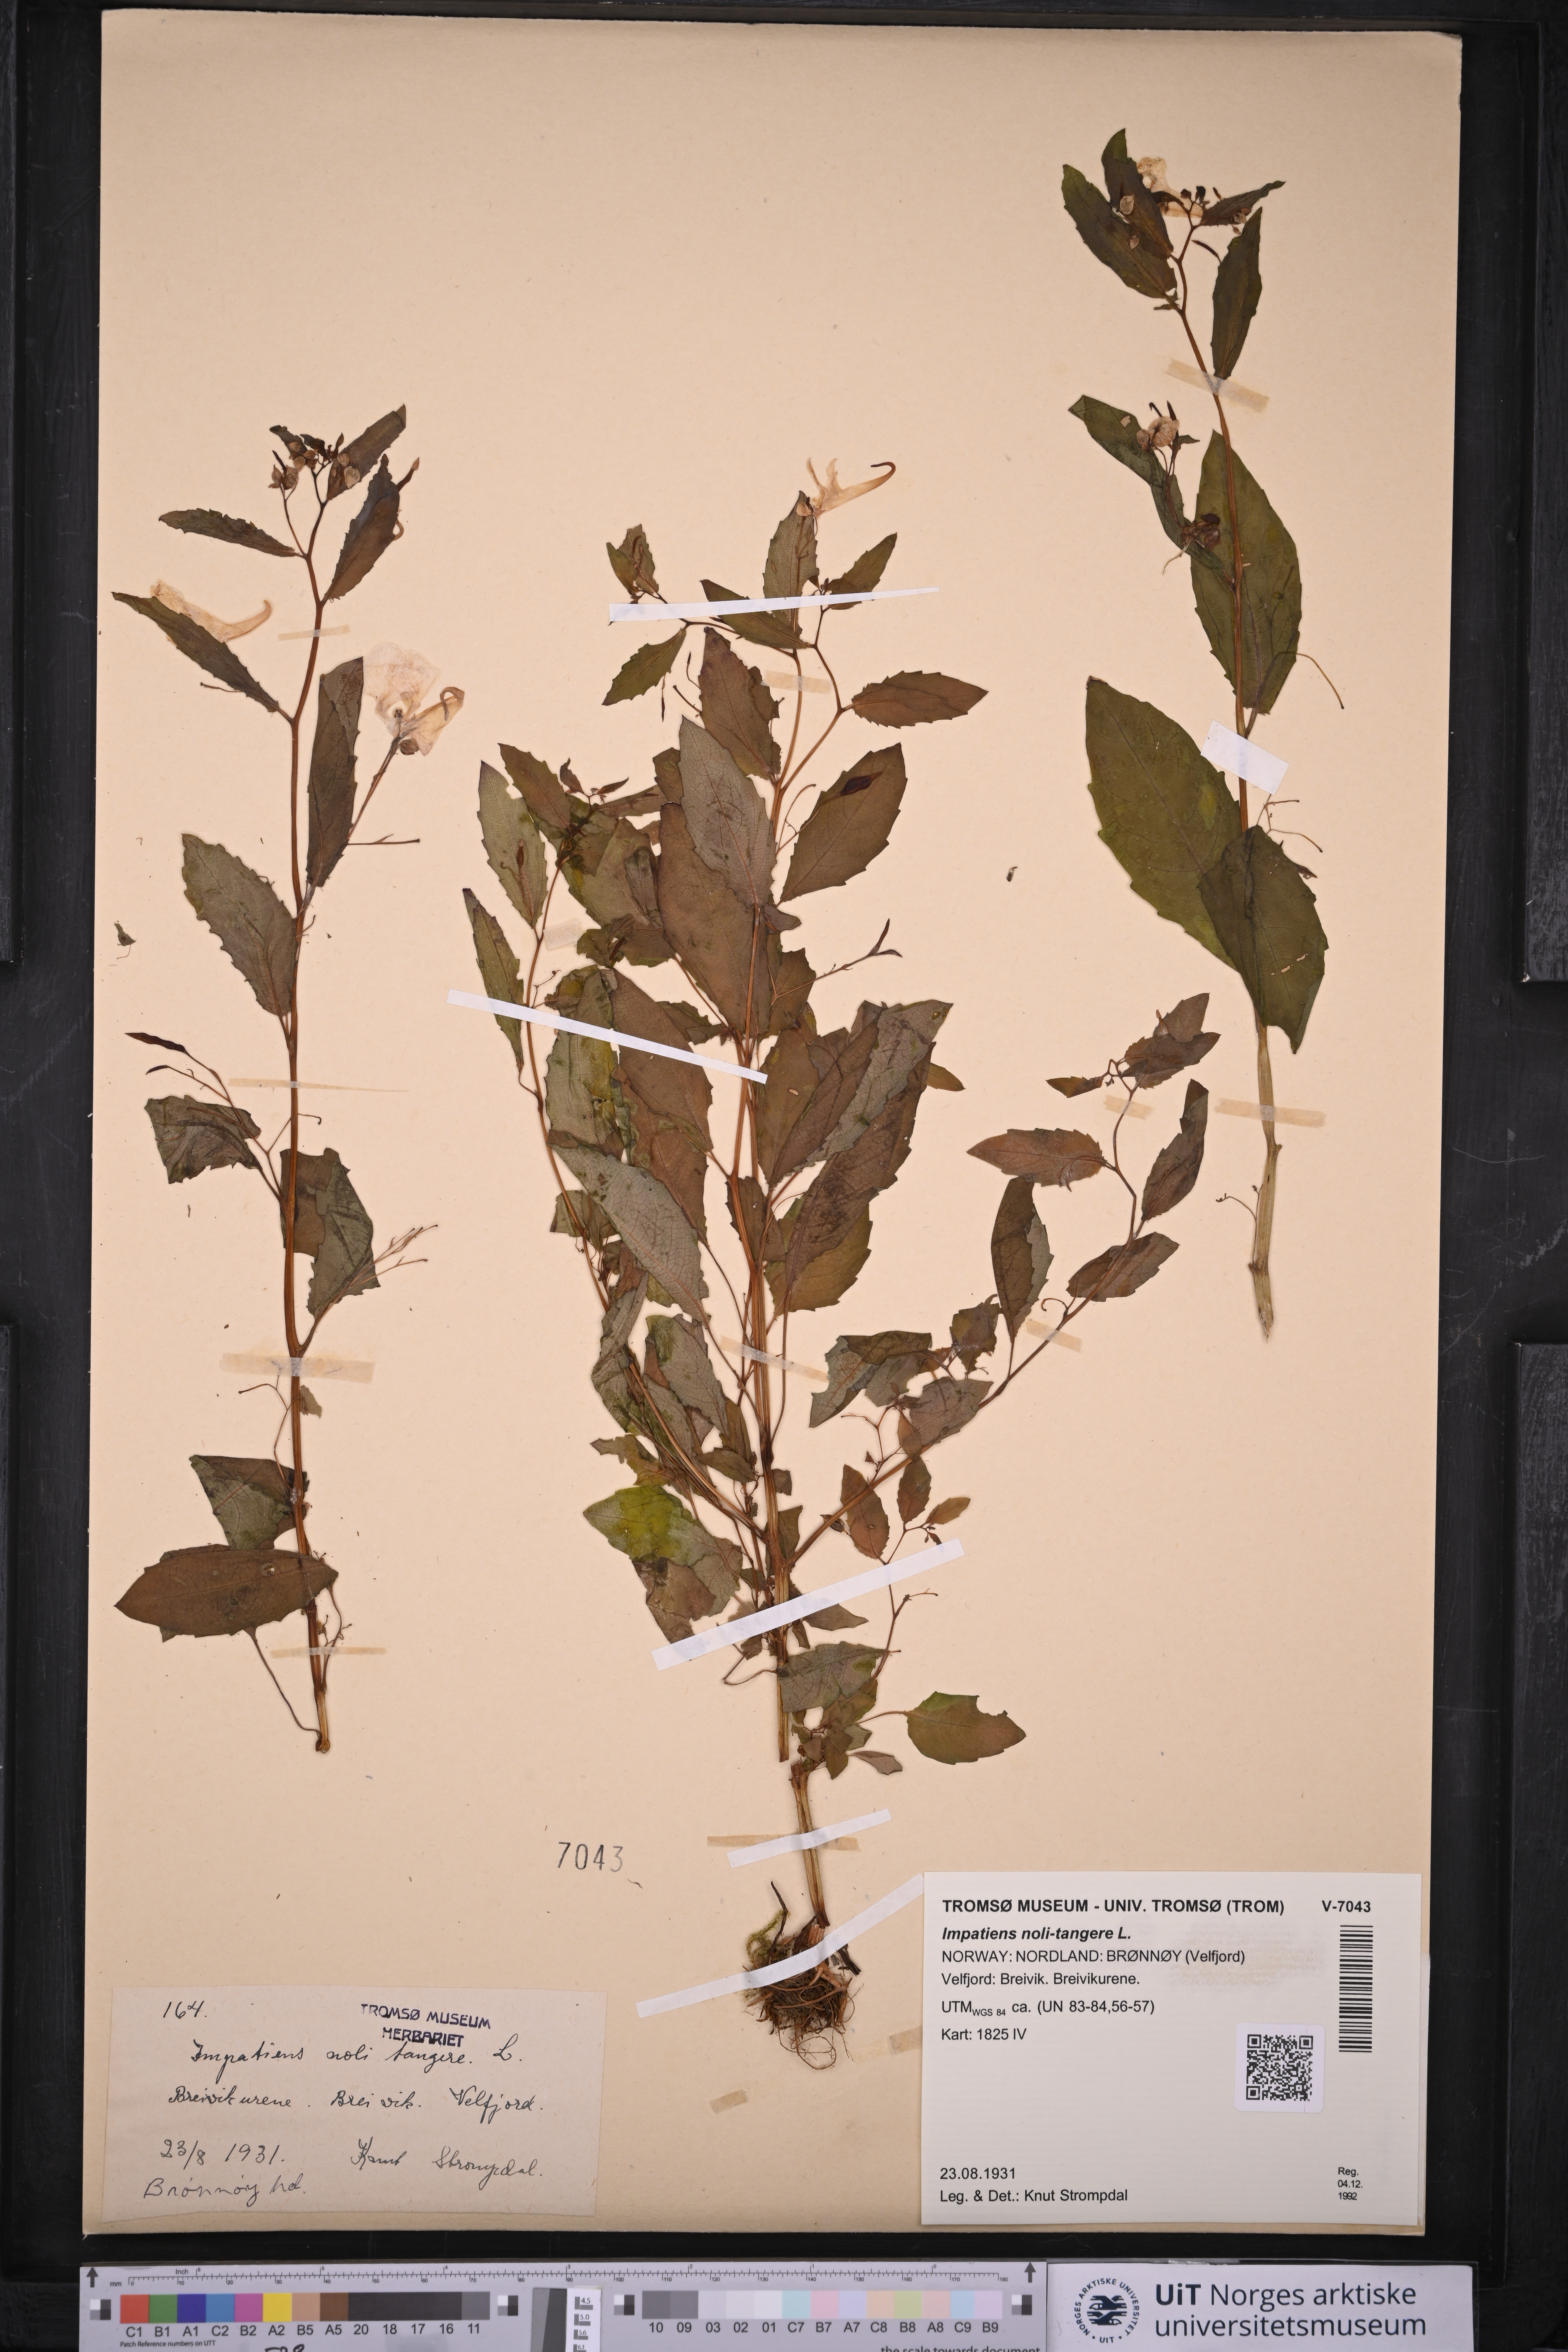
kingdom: Plantae
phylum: Tracheophyta
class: Magnoliopsida
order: Ericales
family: Balsaminaceae
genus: Impatiens
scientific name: Impatiens noli-tangere
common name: Touch-me-not balsam
